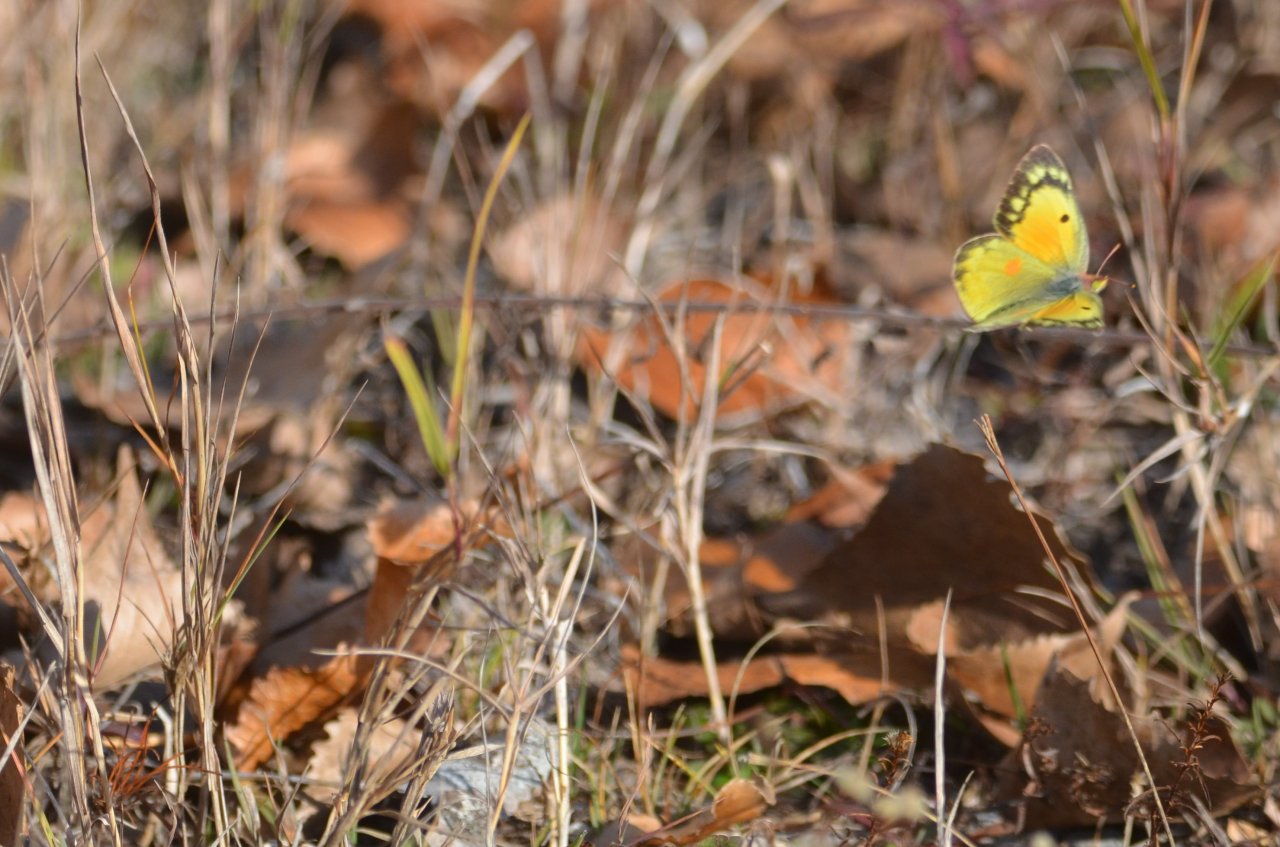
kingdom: Animalia
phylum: Arthropoda
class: Insecta
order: Lepidoptera
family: Pieridae
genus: Colias
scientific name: Colias eurytheme
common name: Orange Sulphur
